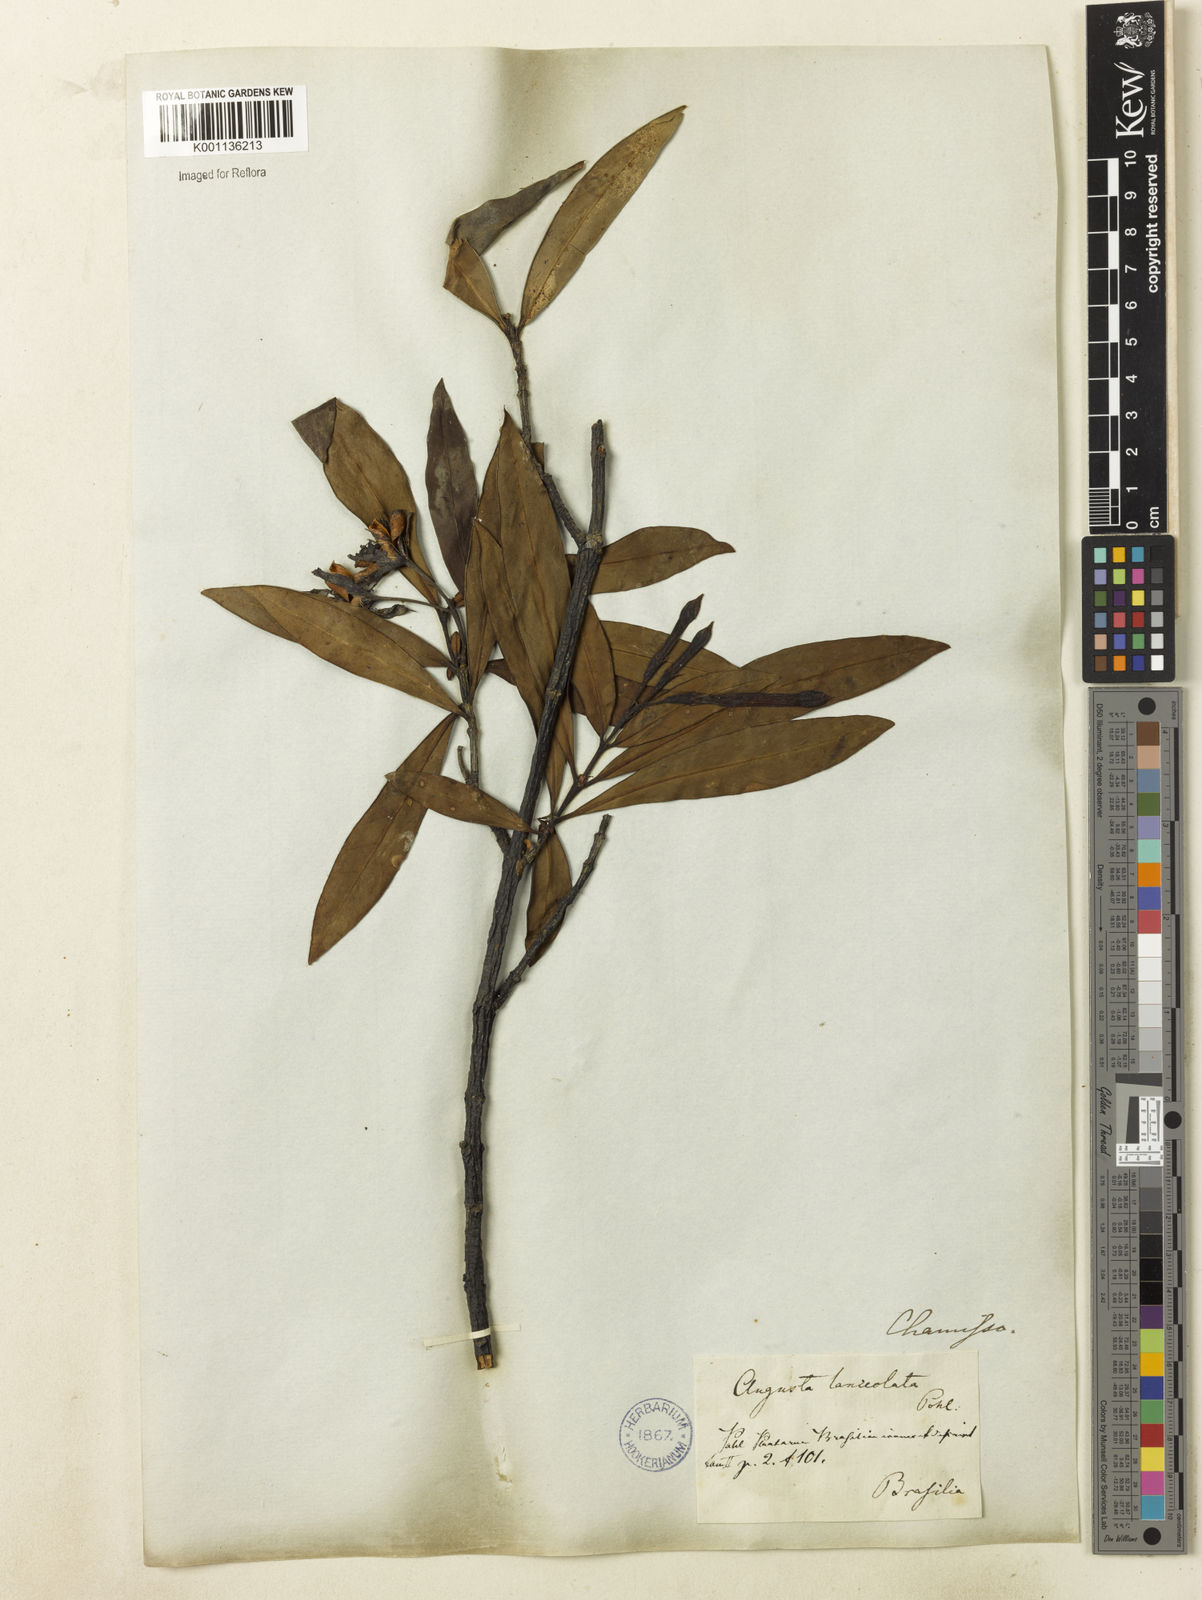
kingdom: Plantae
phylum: Tracheophyta
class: Magnoliopsida
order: Gentianales
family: Rubiaceae
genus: Augusta
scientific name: Augusta longifolia
